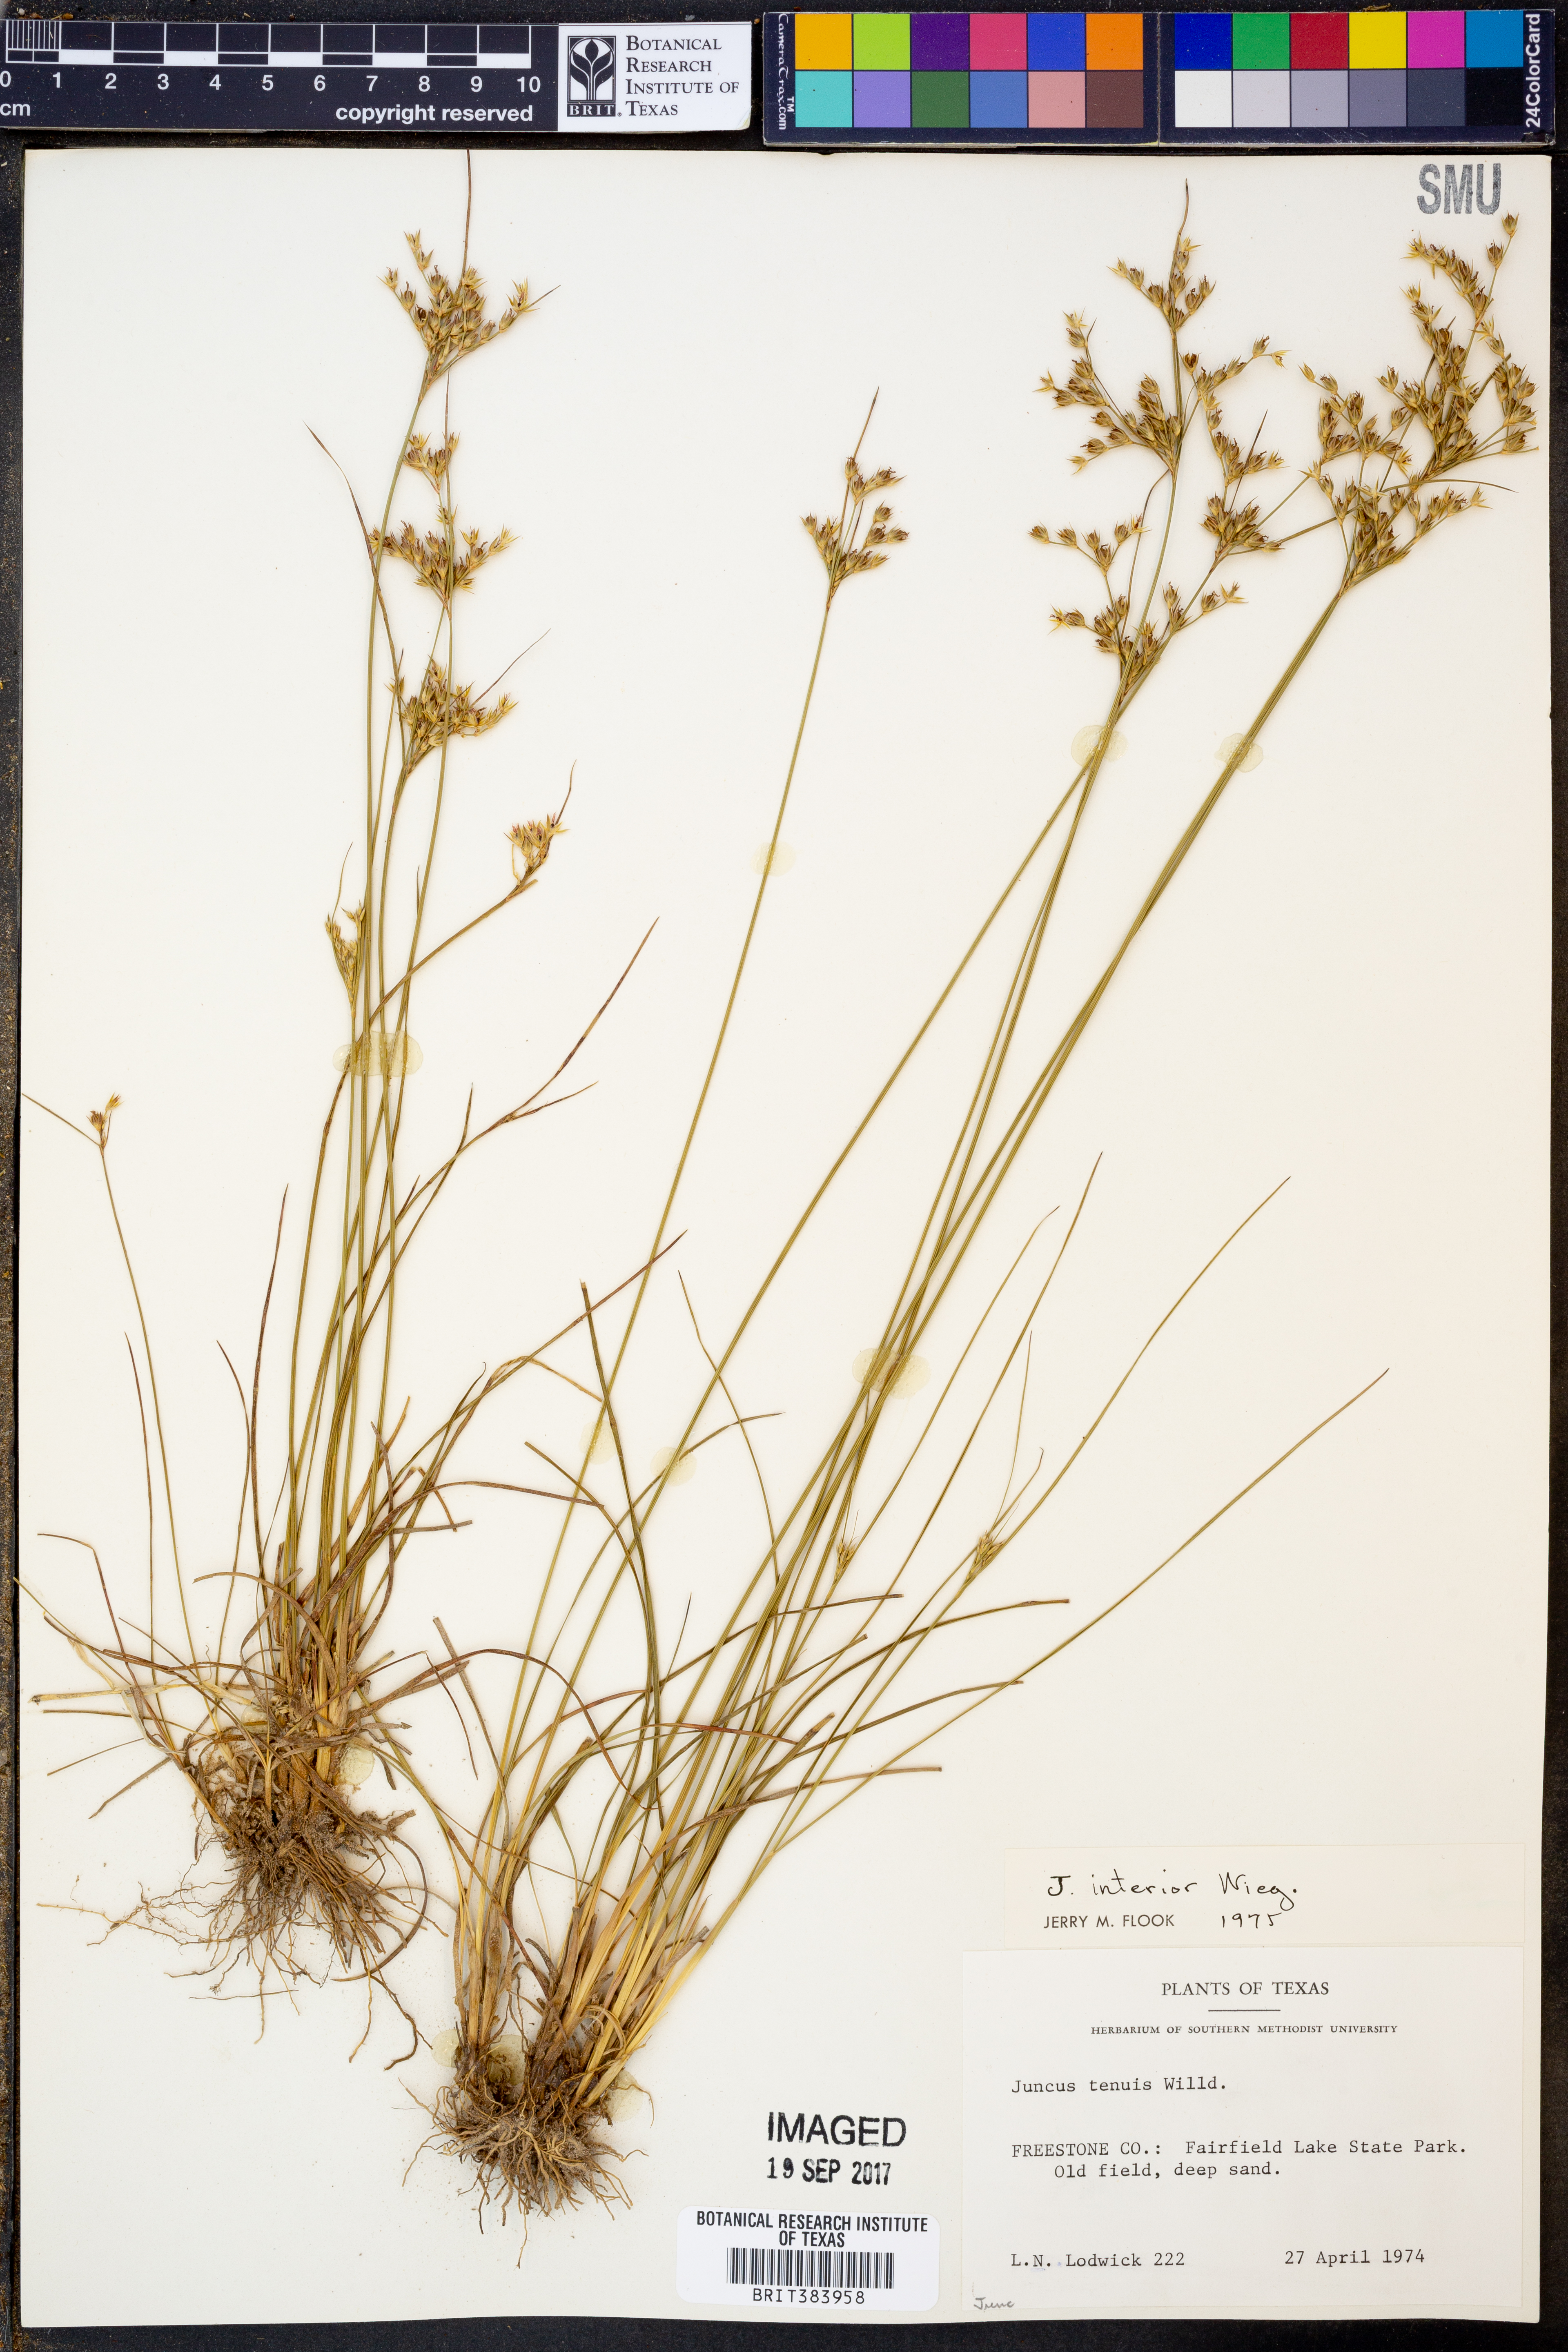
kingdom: Plantae
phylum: Tracheophyta
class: Liliopsida
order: Poales
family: Juncaceae
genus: Juncus
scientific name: Juncus interior
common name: Interior rush
